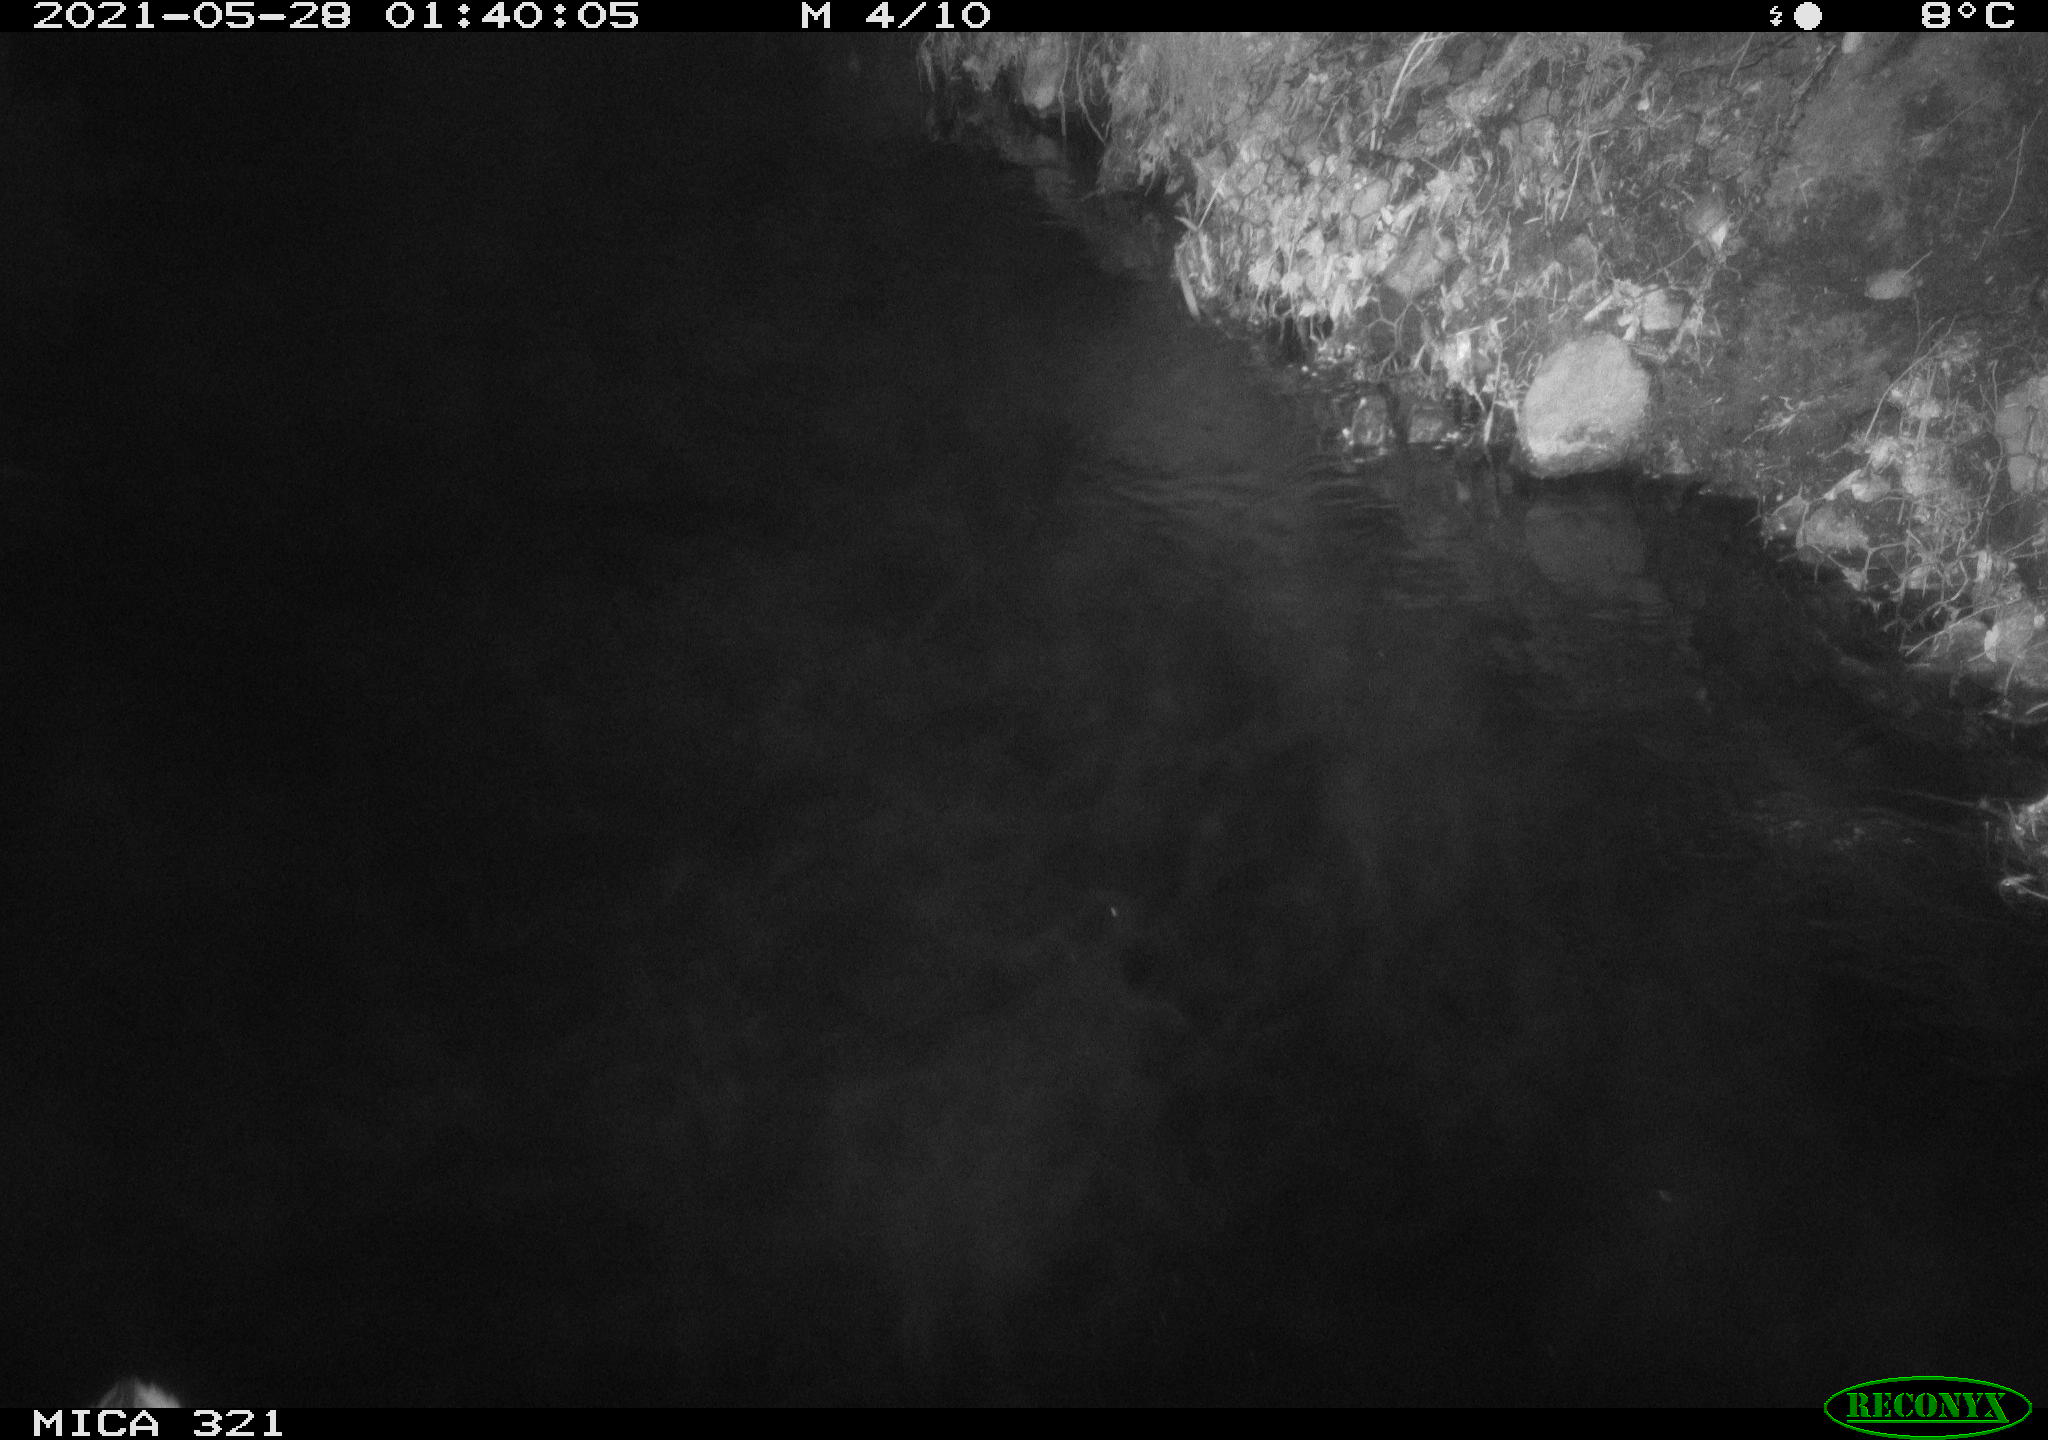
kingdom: Animalia
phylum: Chordata
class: Aves
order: Anseriformes
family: Anatidae
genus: Anas
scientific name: Anas platyrhynchos
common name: Mallard
